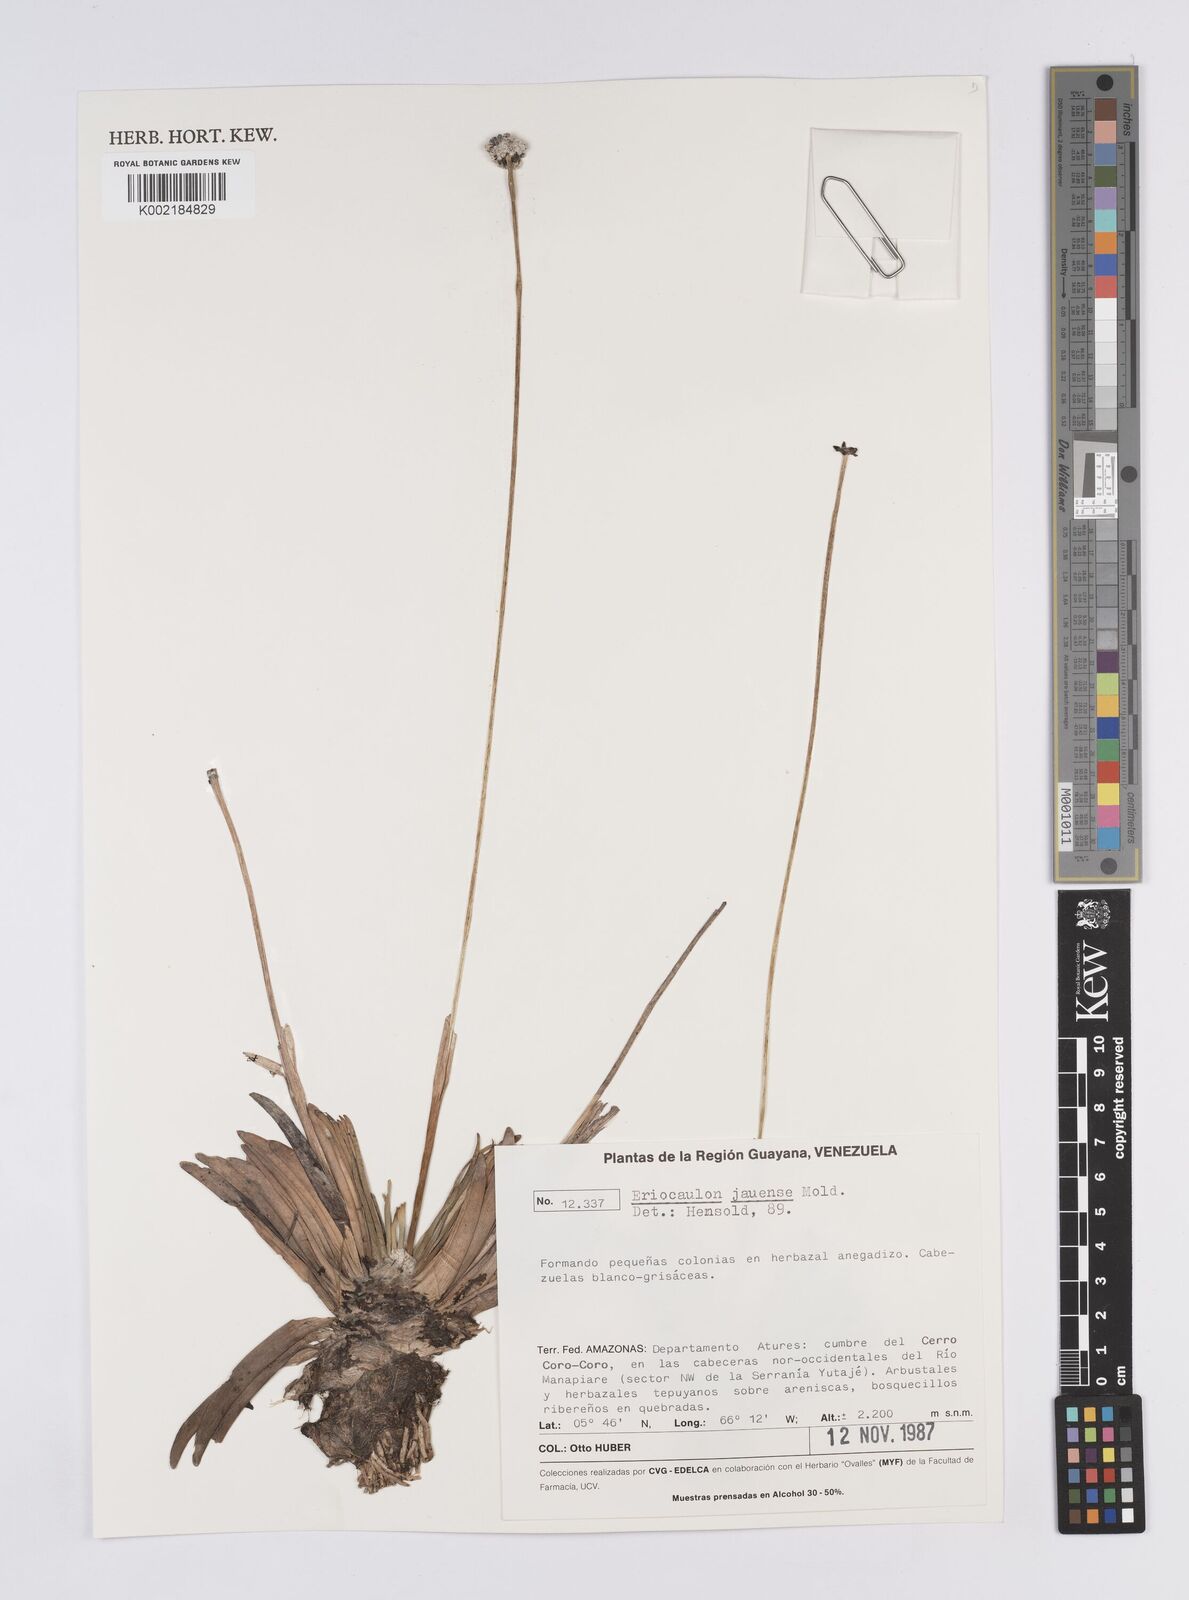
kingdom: Plantae
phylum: Tracheophyta
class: Liliopsida
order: Poales
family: Eriocaulaceae
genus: Eriocaulon
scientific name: Eriocaulon jauense
